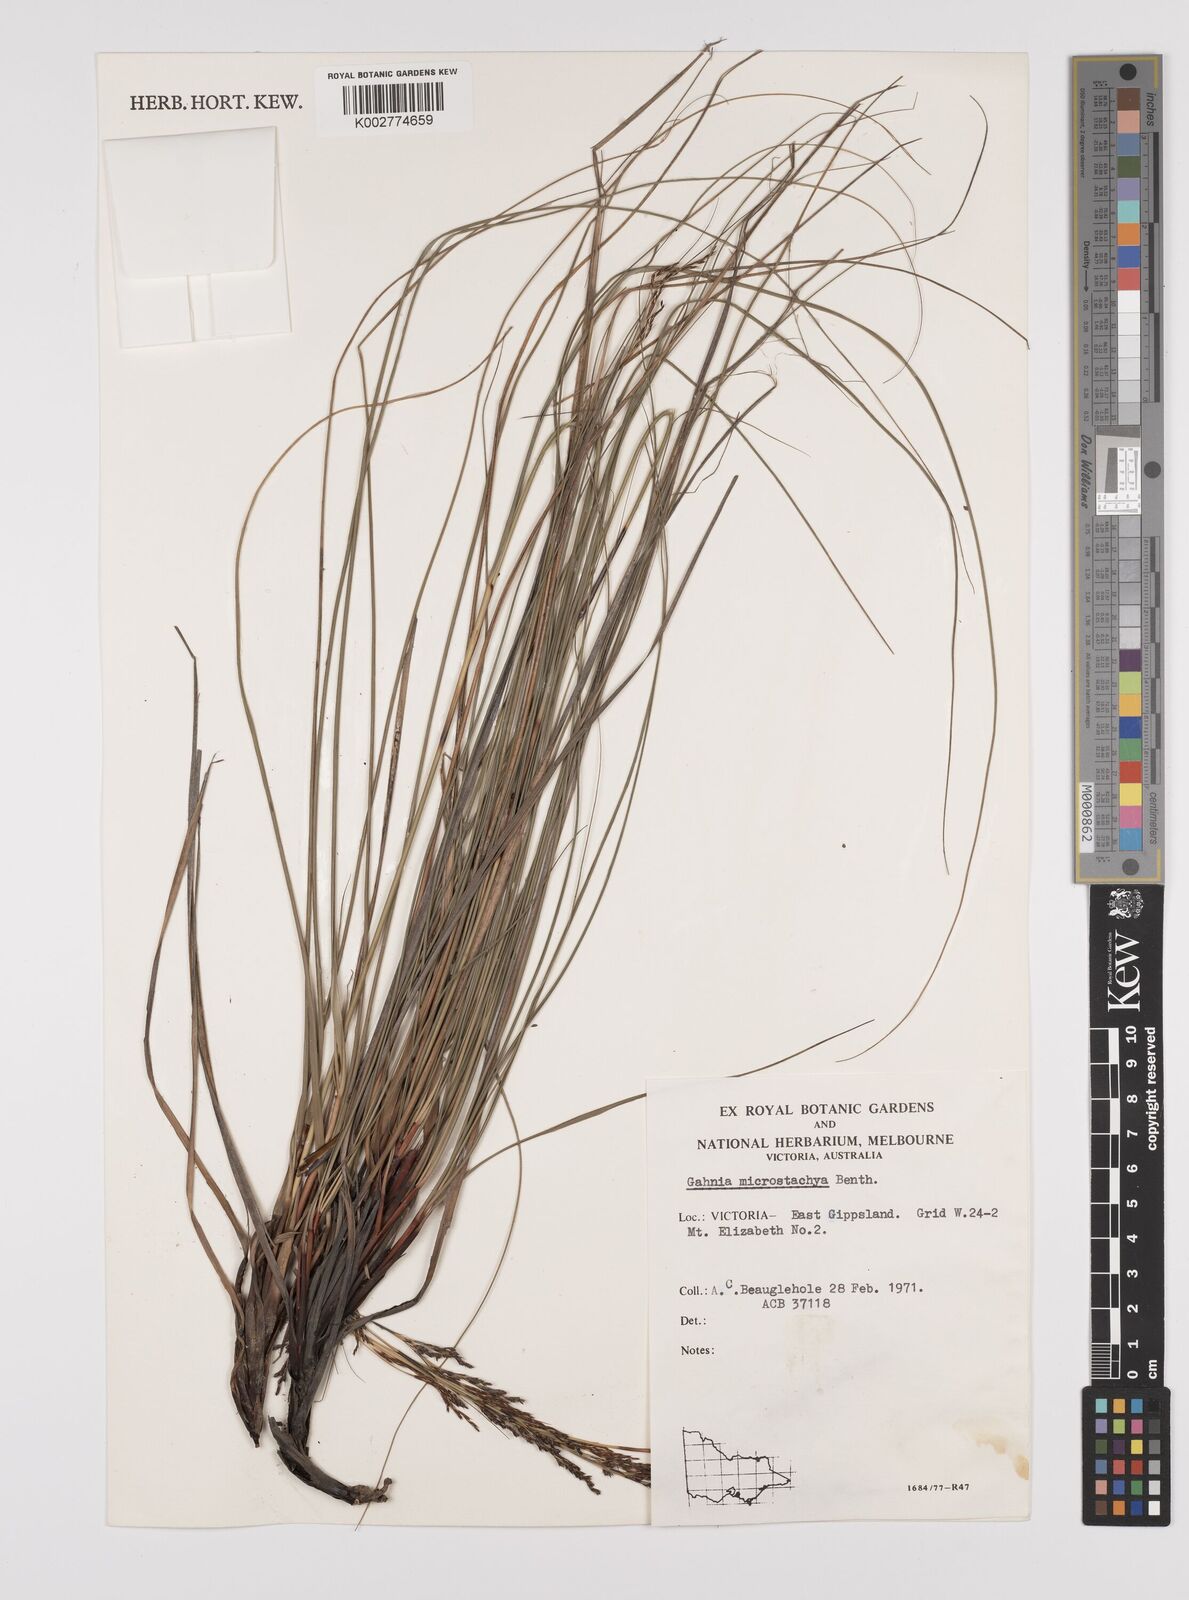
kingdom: Plantae
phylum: Tracheophyta
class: Liliopsida
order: Poales
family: Cyperaceae
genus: Gahnia
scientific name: Gahnia microstachya
